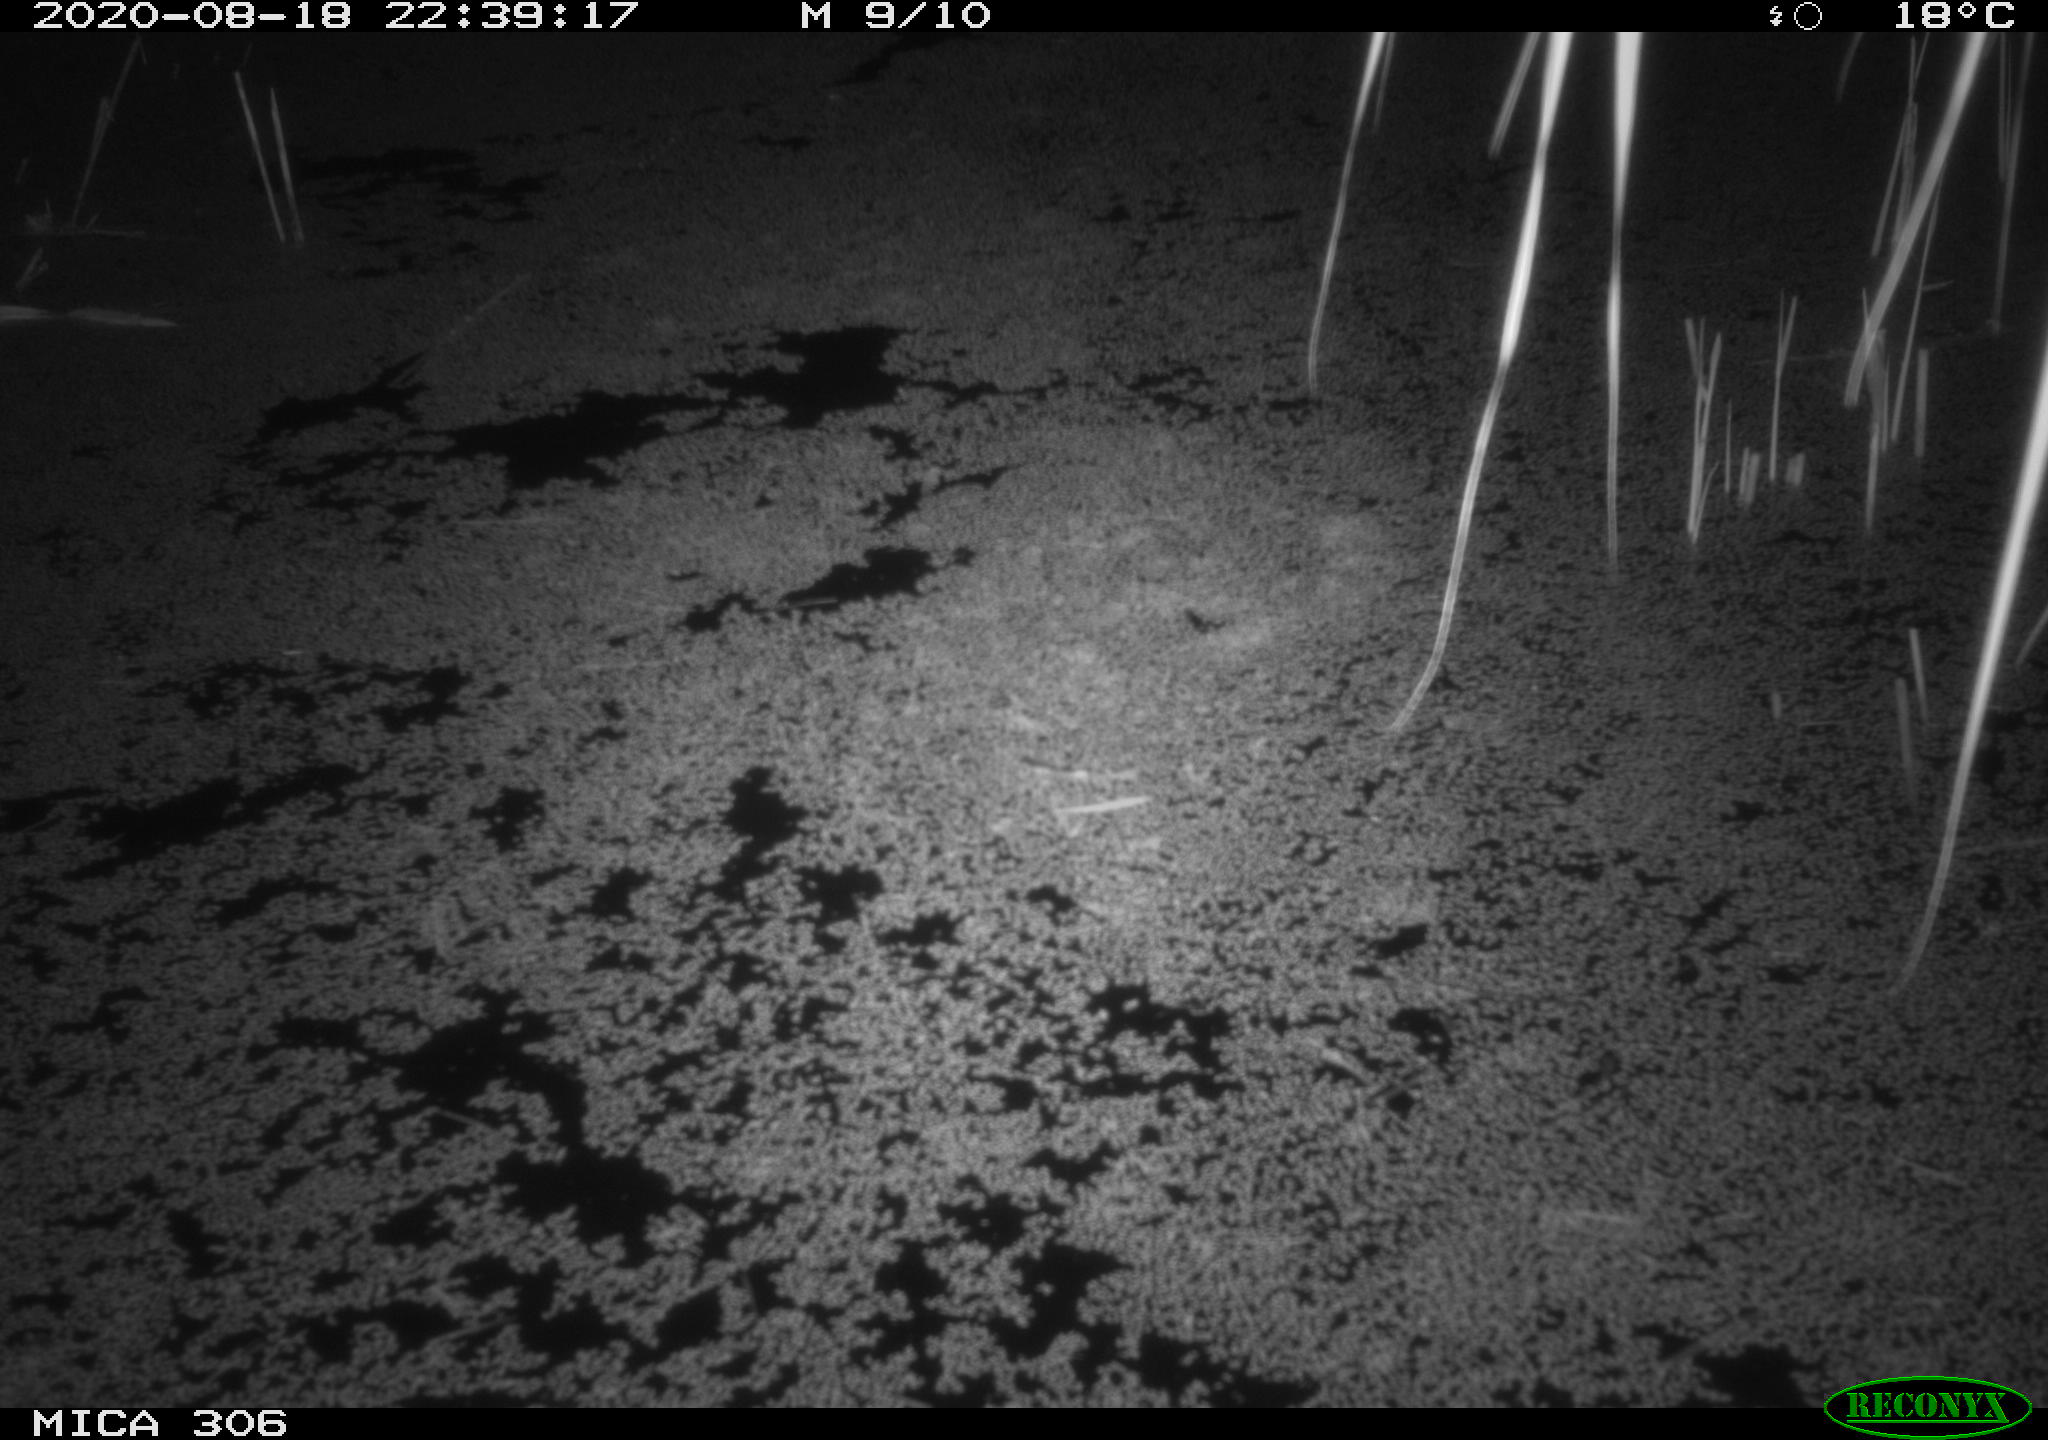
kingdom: Animalia
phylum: Chordata
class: Mammalia
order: Rodentia
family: Muridae
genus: Rattus
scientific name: Rattus norvegicus
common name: Brown rat
